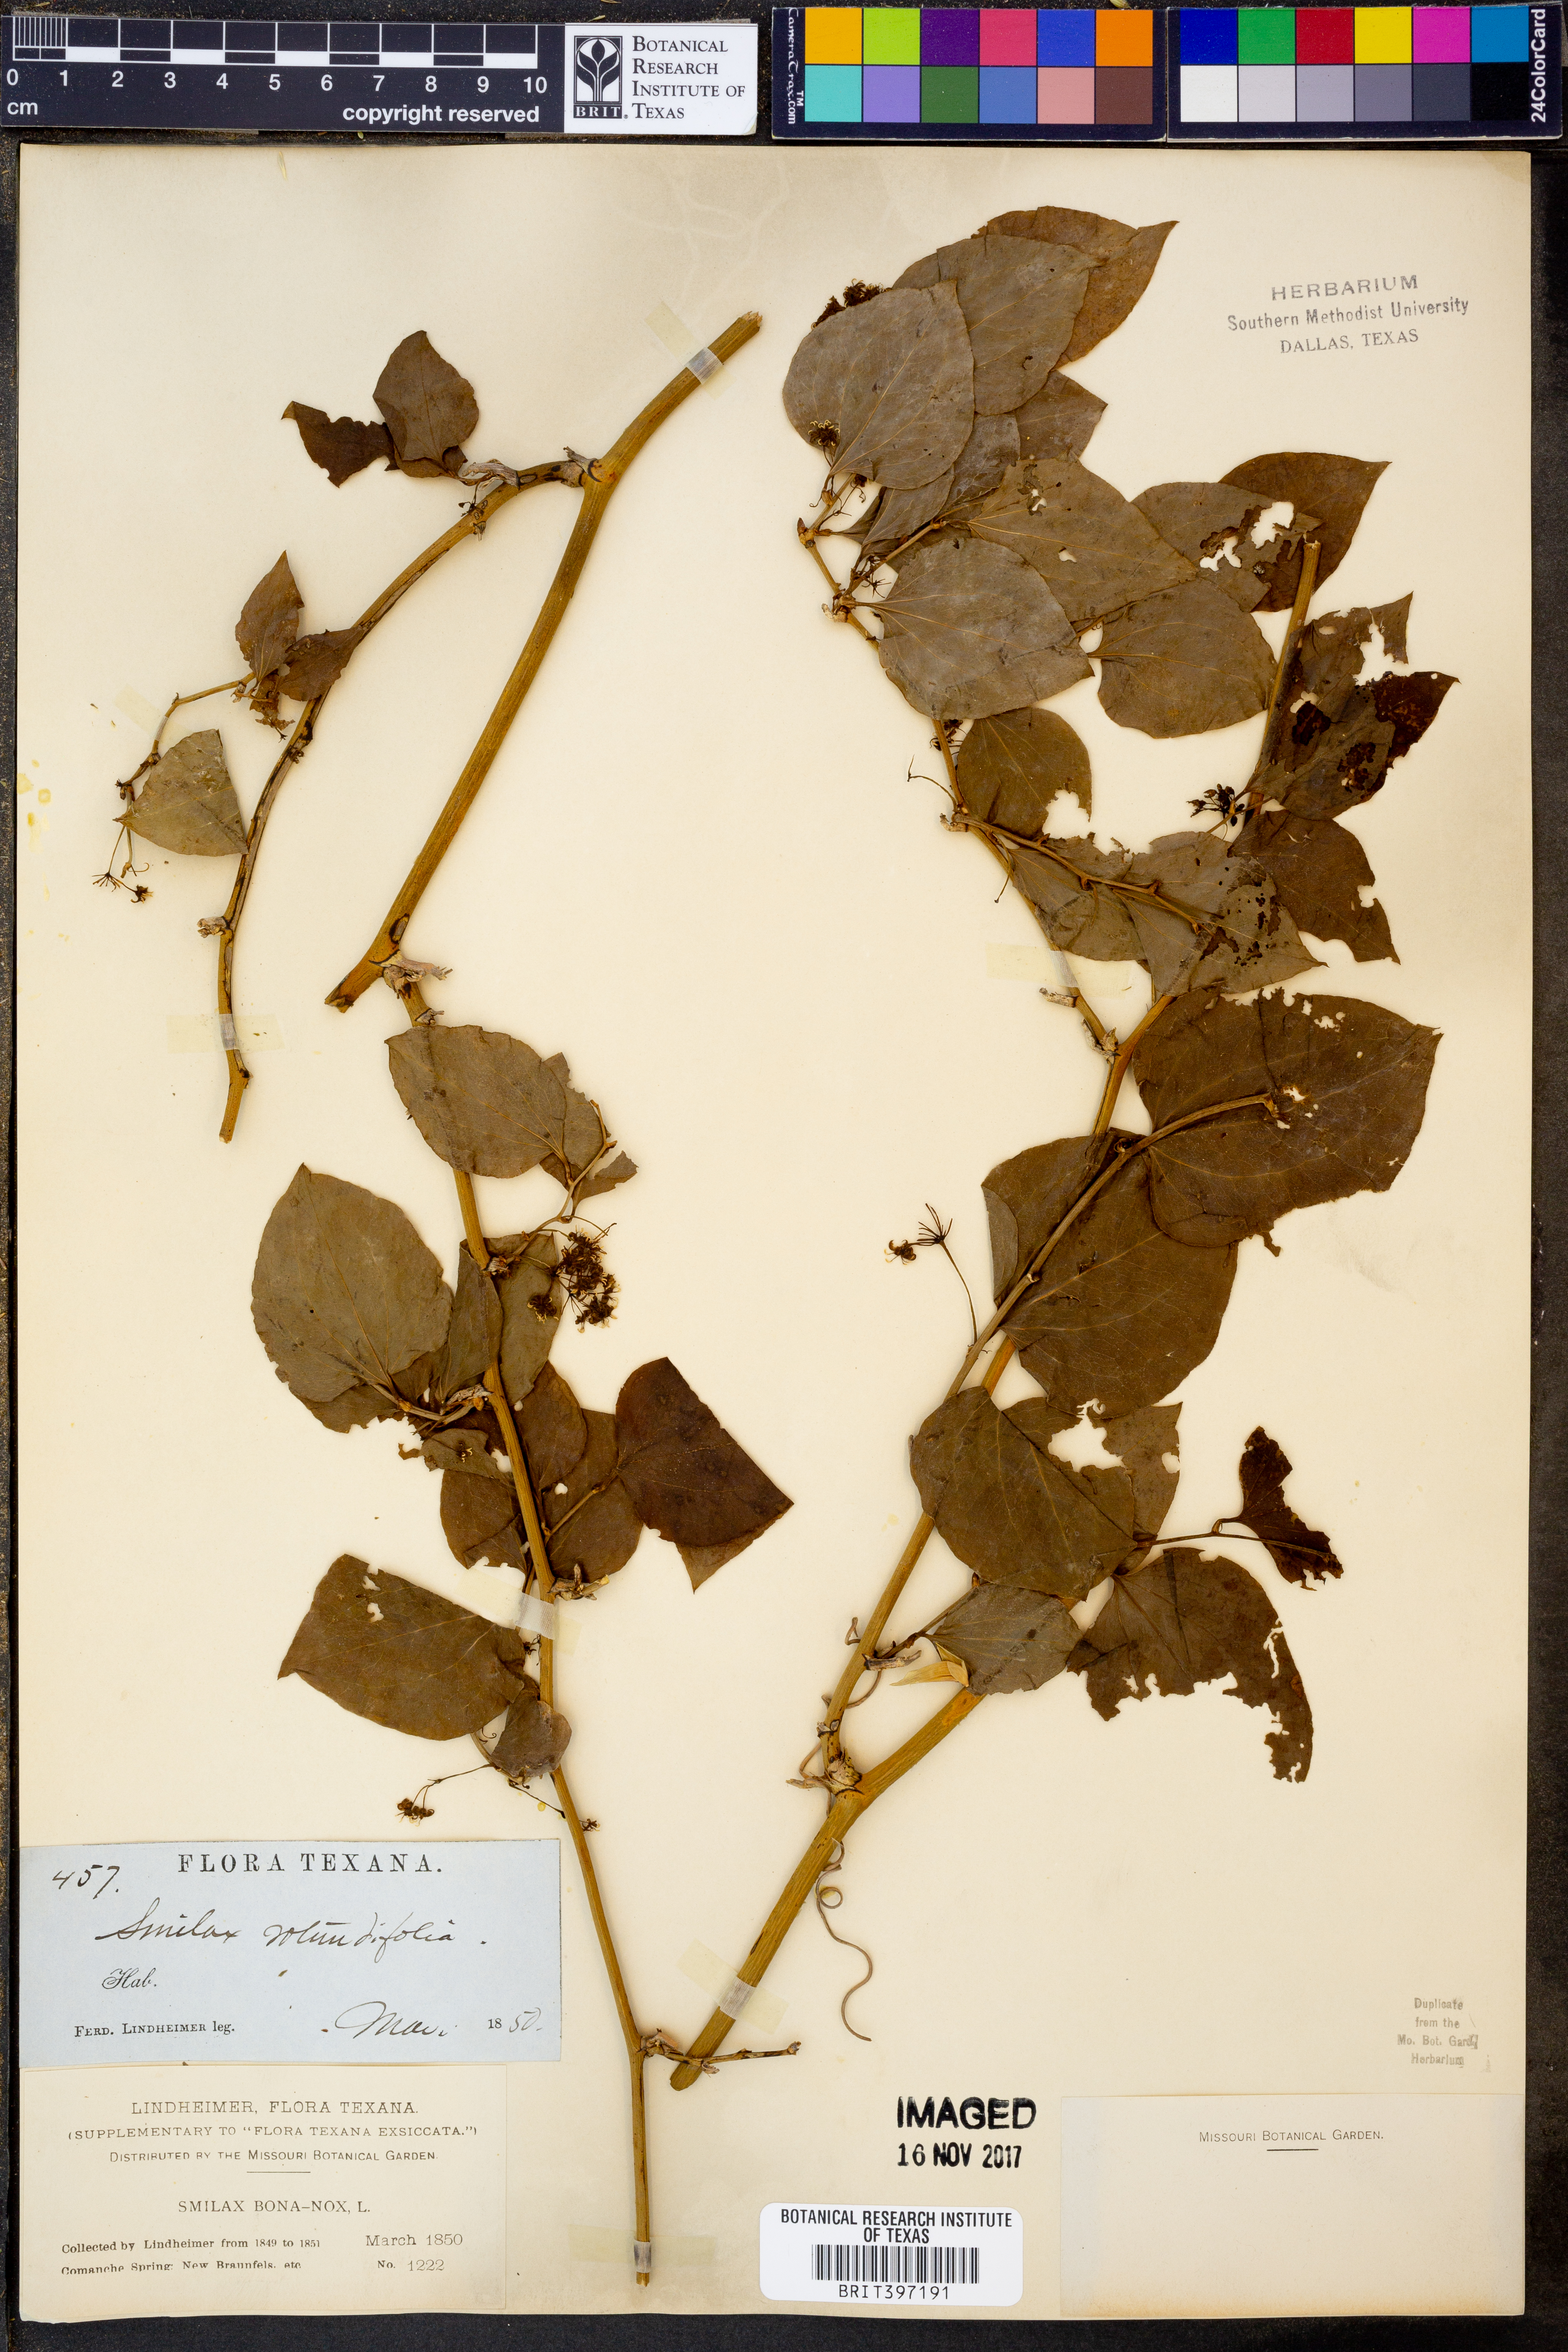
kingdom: Plantae
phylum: Tracheophyta
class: Liliopsida
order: Liliales
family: Smilacaceae
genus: Smilax
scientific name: Smilax rotundifolia
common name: Bullbriar
